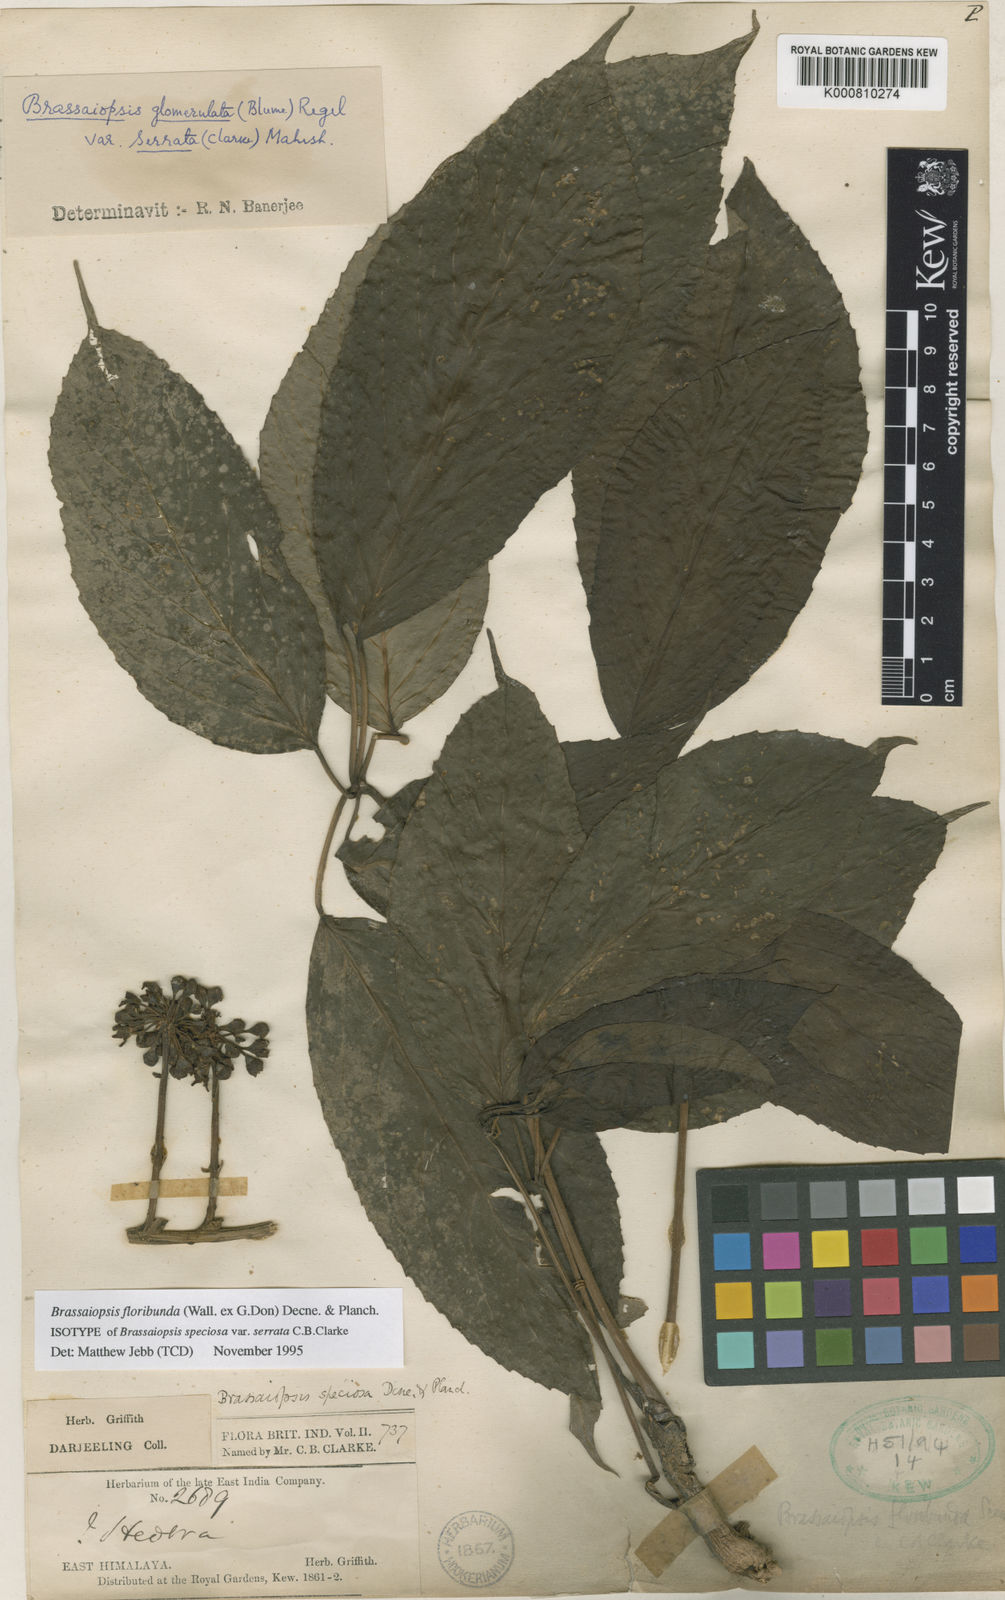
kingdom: Plantae
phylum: Tracheophyta
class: Magnoliopsida
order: Apiales
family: Araliaceae
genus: Brassaiopsis
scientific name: Brassaiopsis glomerulata
